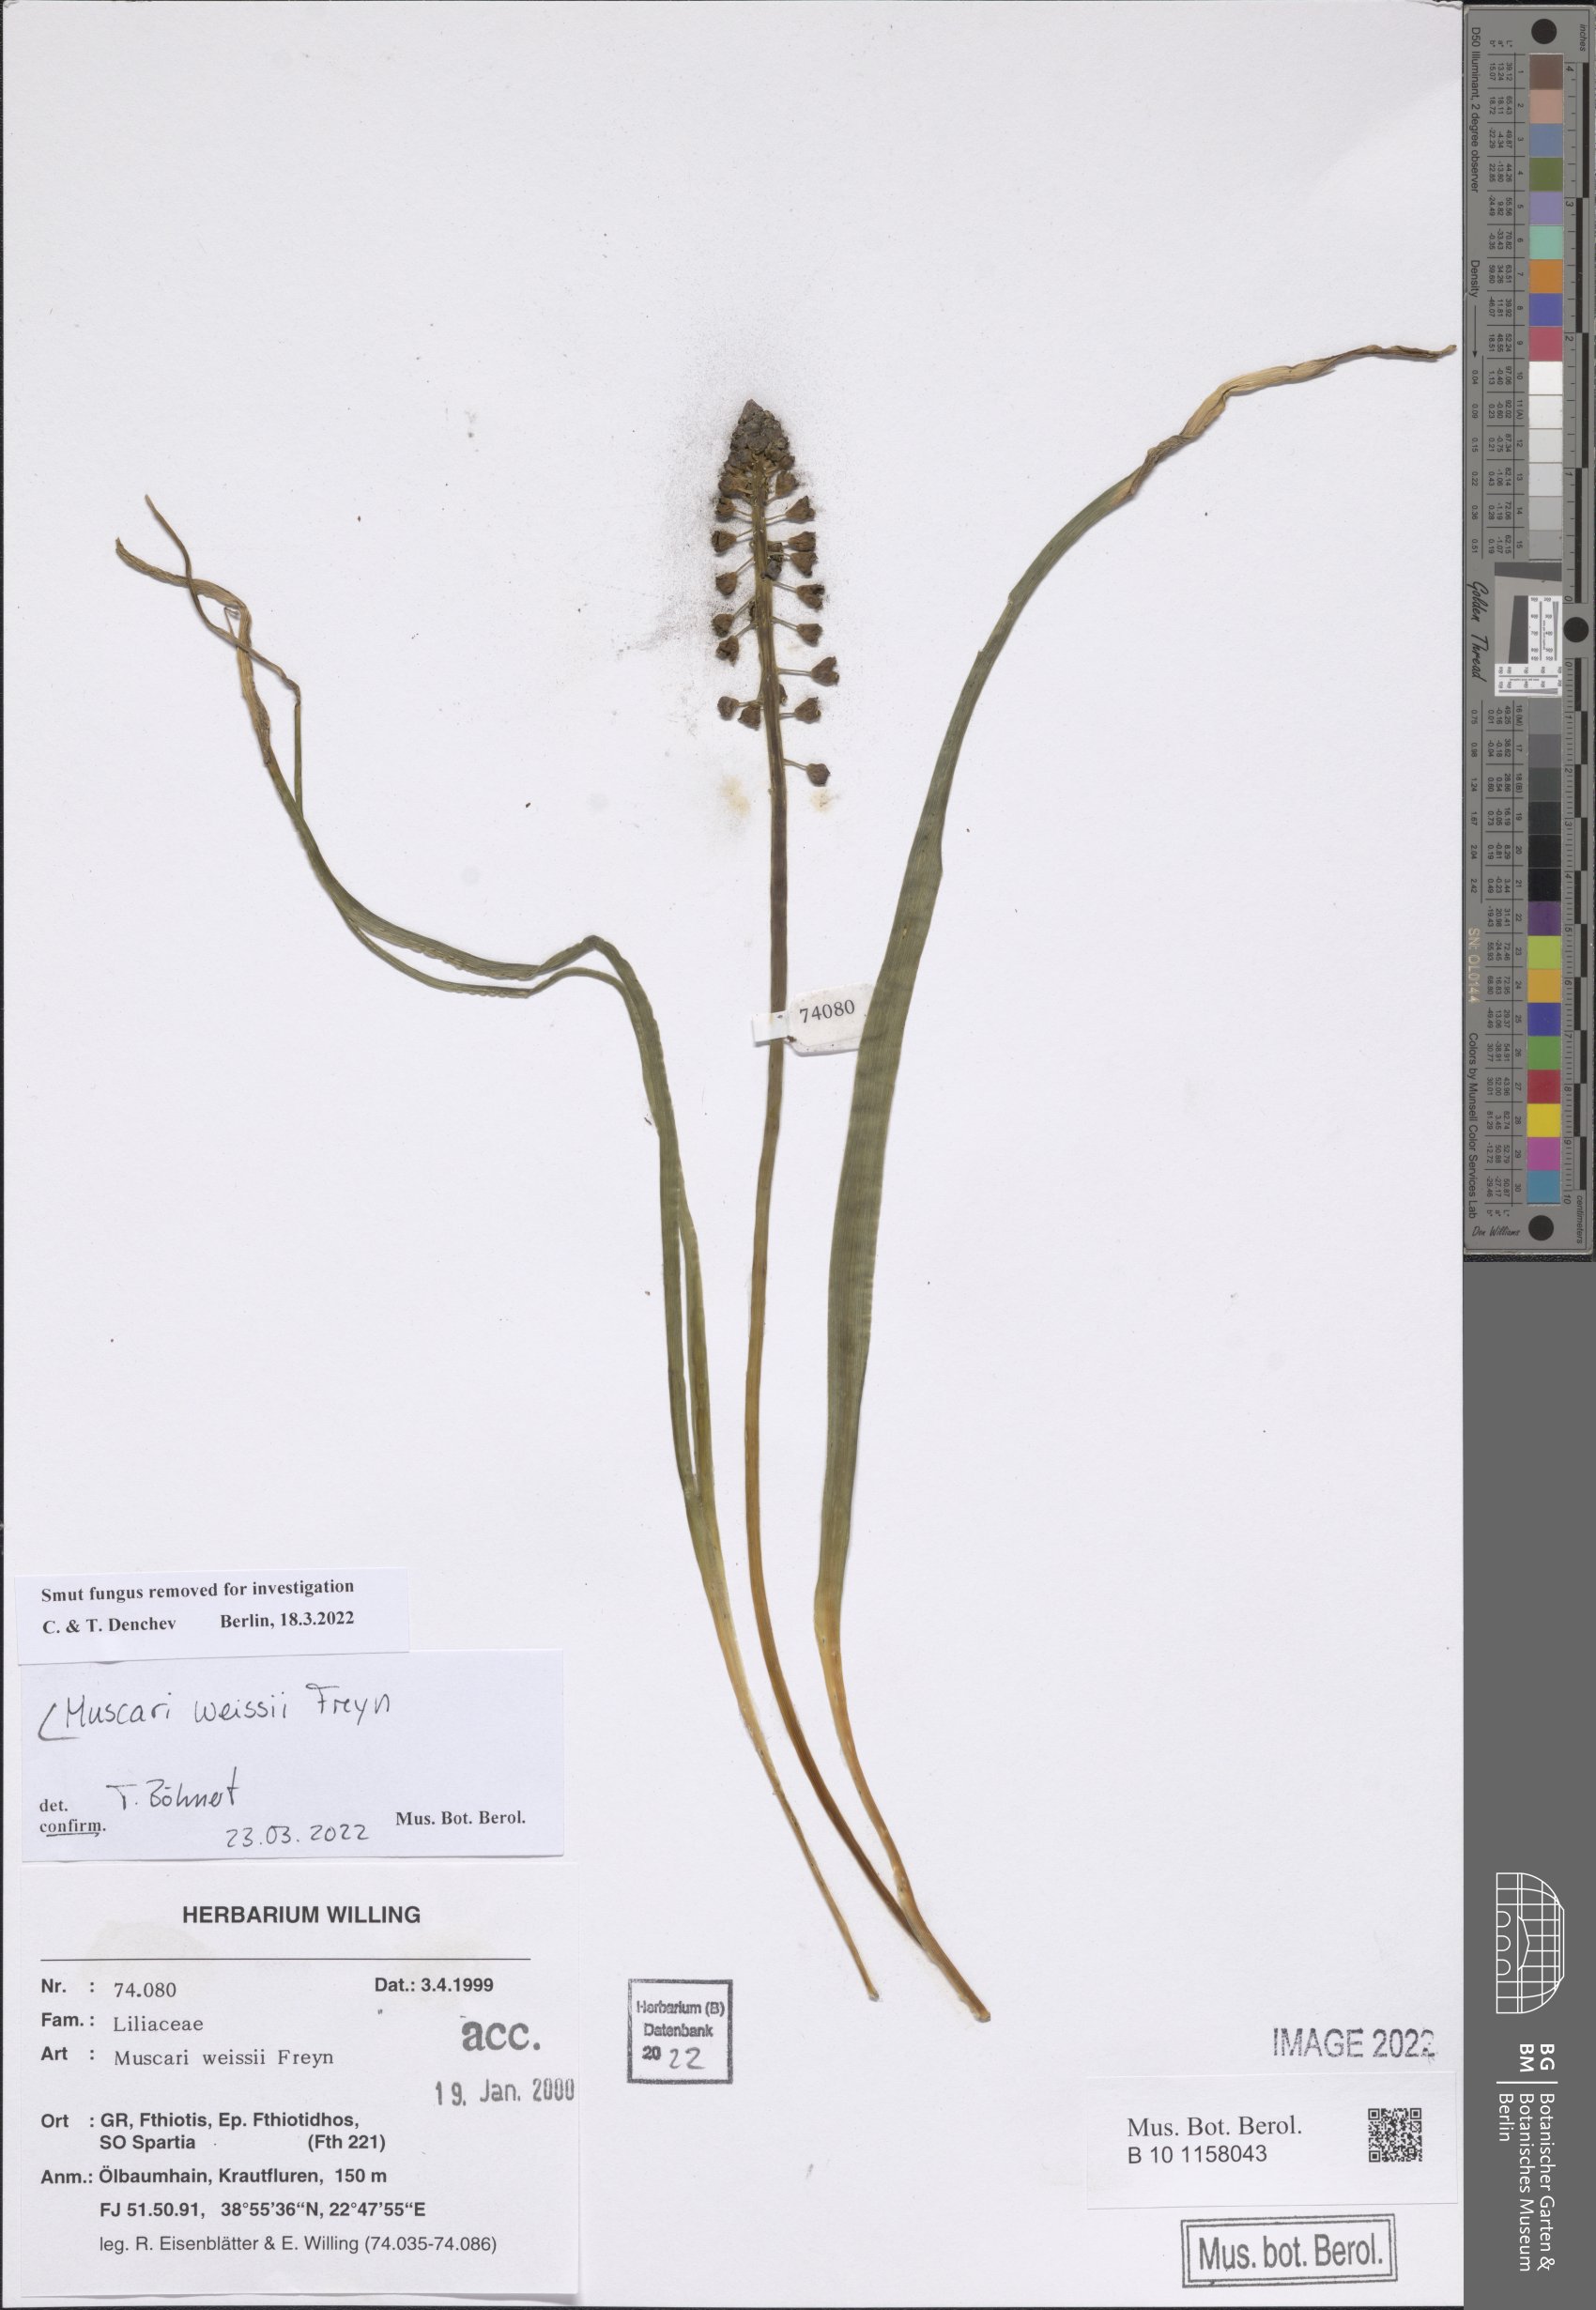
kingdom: Plantae
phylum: Tracheophyta
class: Liliopsida
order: Asparagales
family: Asparagaceae
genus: Muscari
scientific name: Muscari weissii
